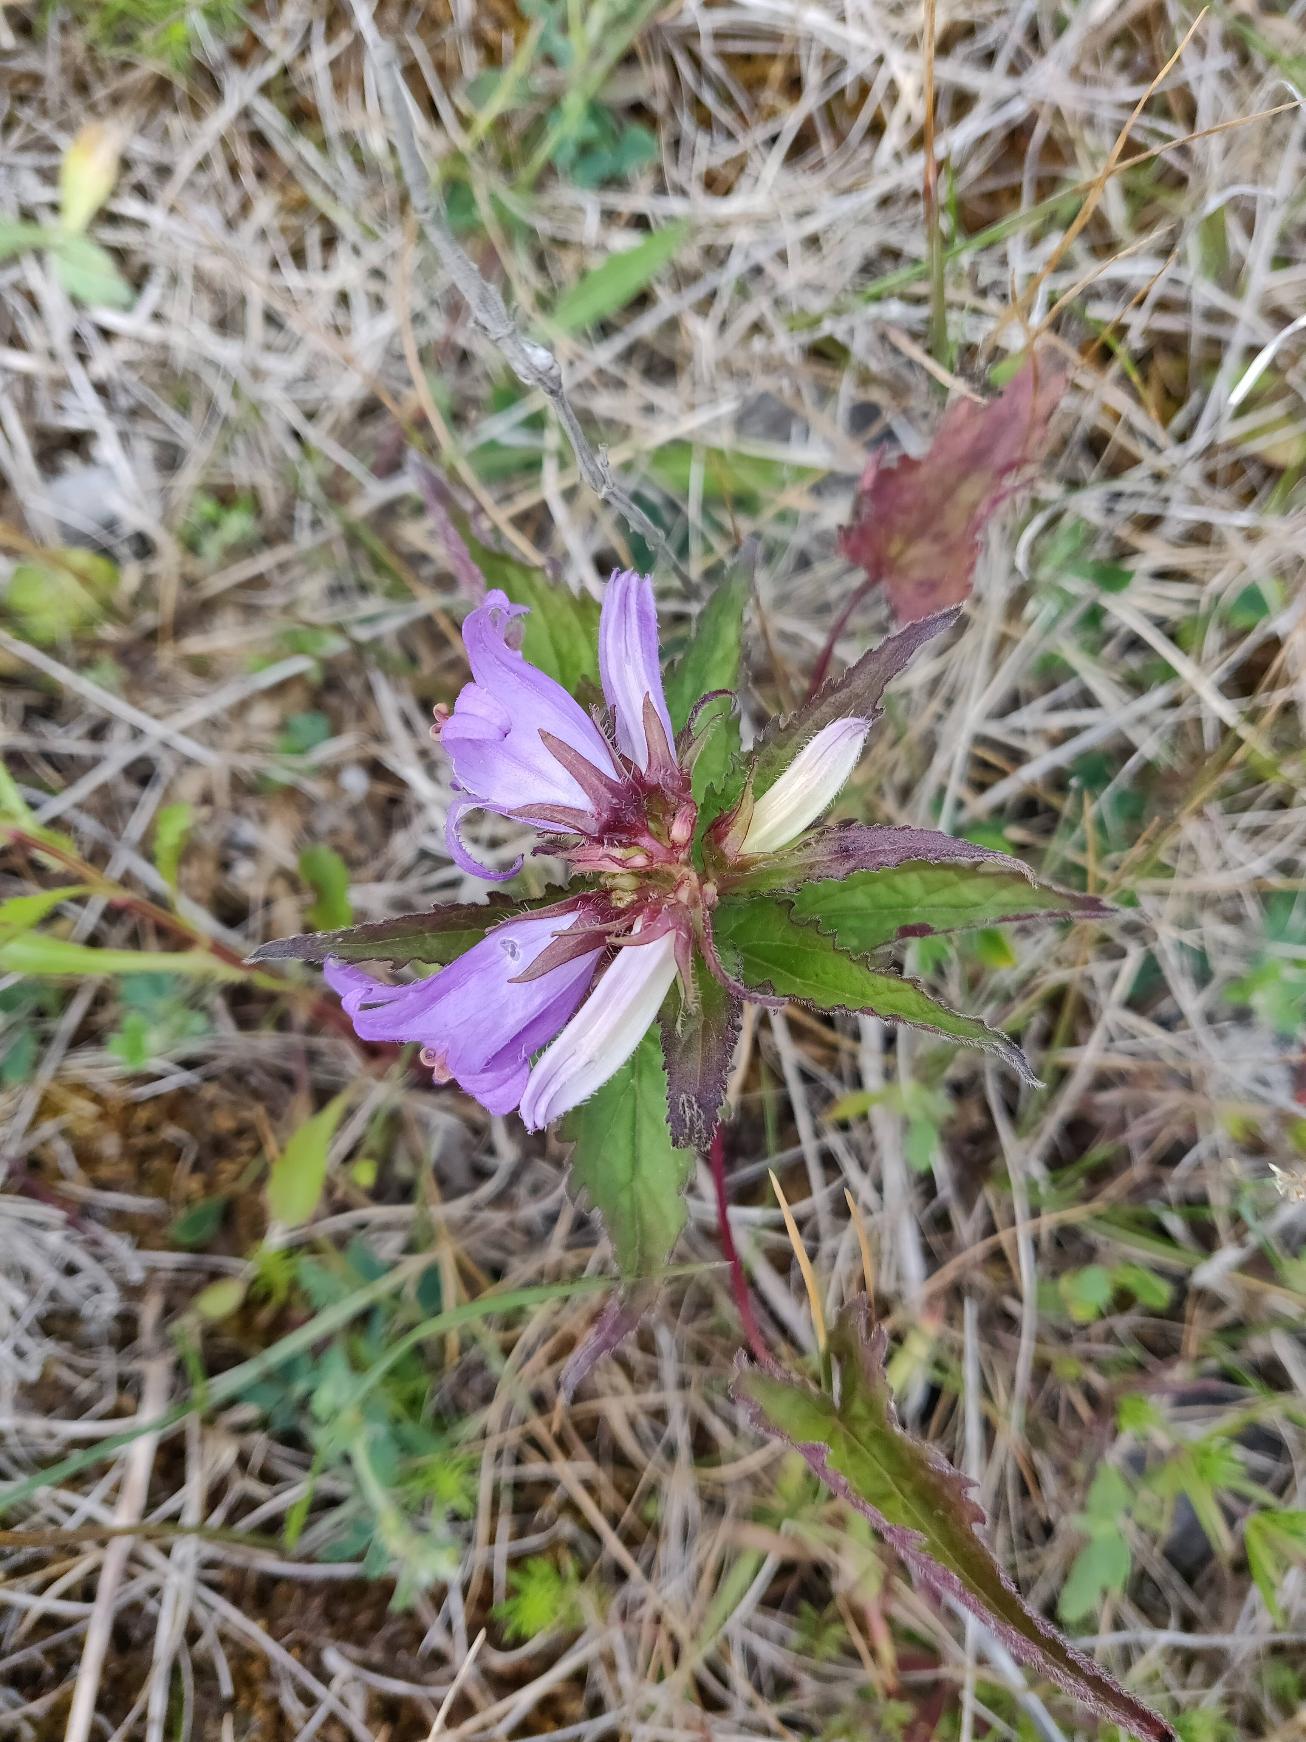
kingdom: Plantae
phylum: Tracheophyta
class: Magnoliopsida
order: Asterales
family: Campanulaceae
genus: Campanula
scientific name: Campanula trachelium
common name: Nælde-klokke
